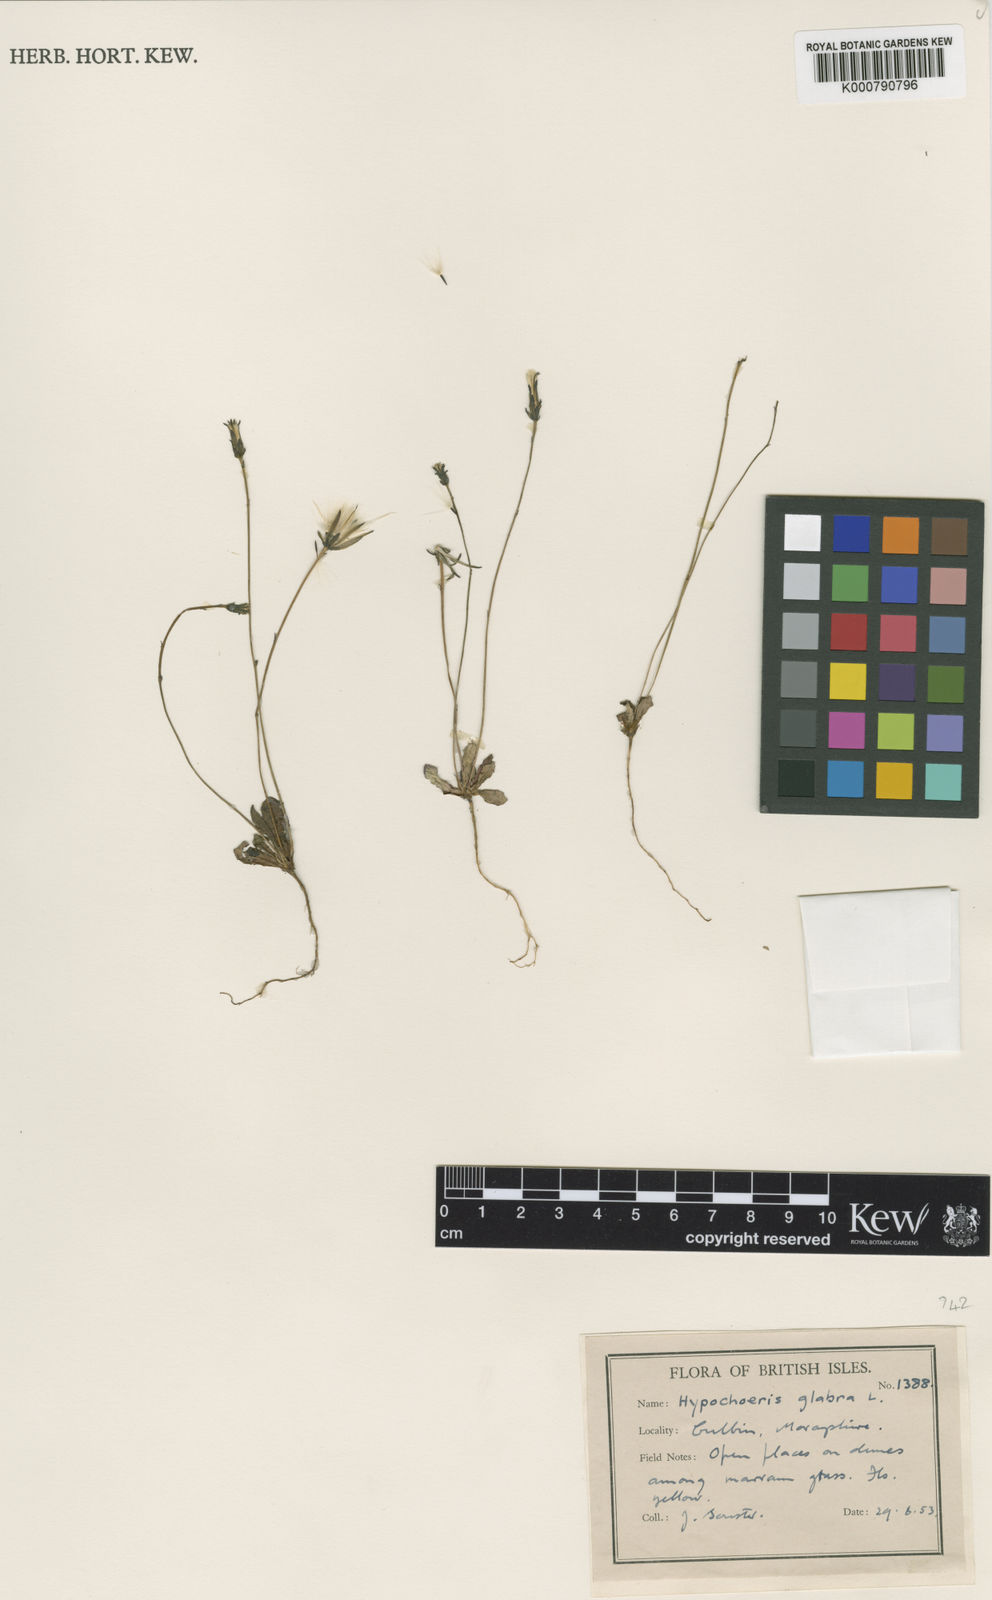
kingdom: Plantae
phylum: Tracheophyta
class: Magnoliopsida
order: Asterales
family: Asteraceae
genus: Hypochaeris
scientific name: Hypochaeris glabra
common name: Smooth catsear
